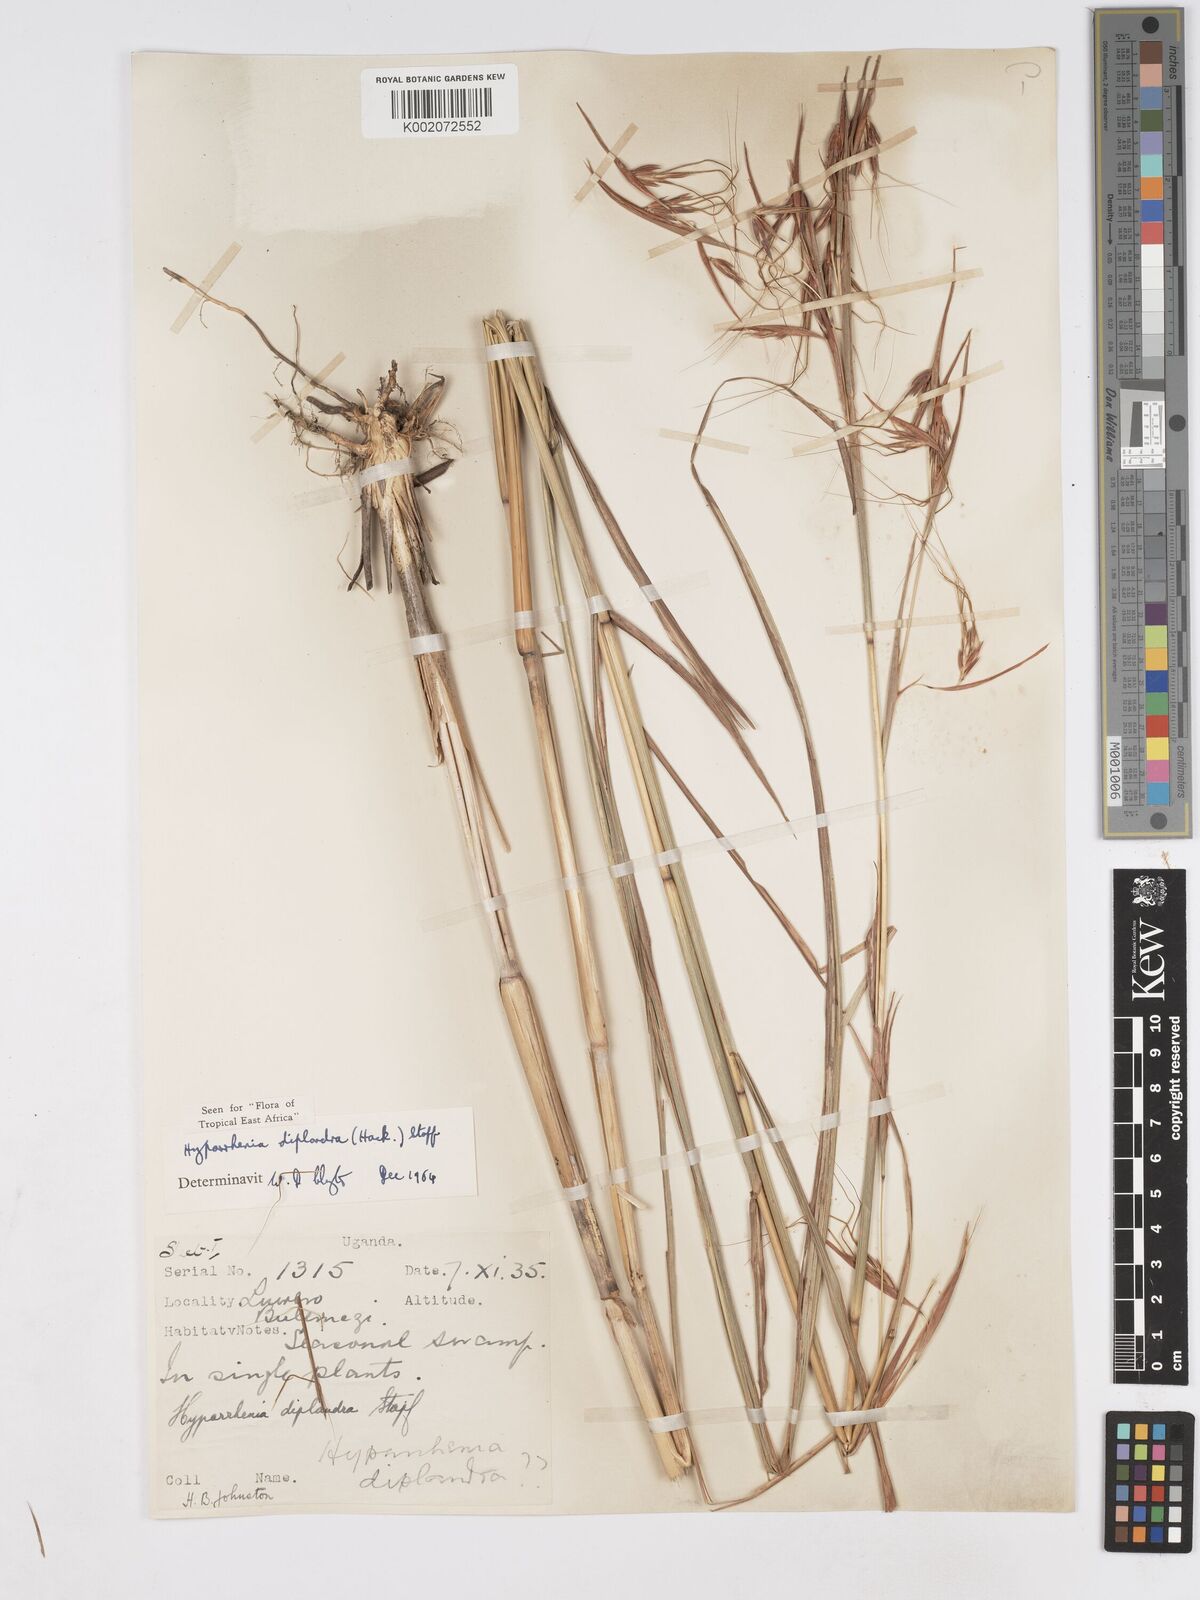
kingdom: Plantae
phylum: Tracheophyta
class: Liliopsida
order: Poales
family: Poaceae
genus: Hyparrhenia
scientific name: Hyparrhenia diplandra
